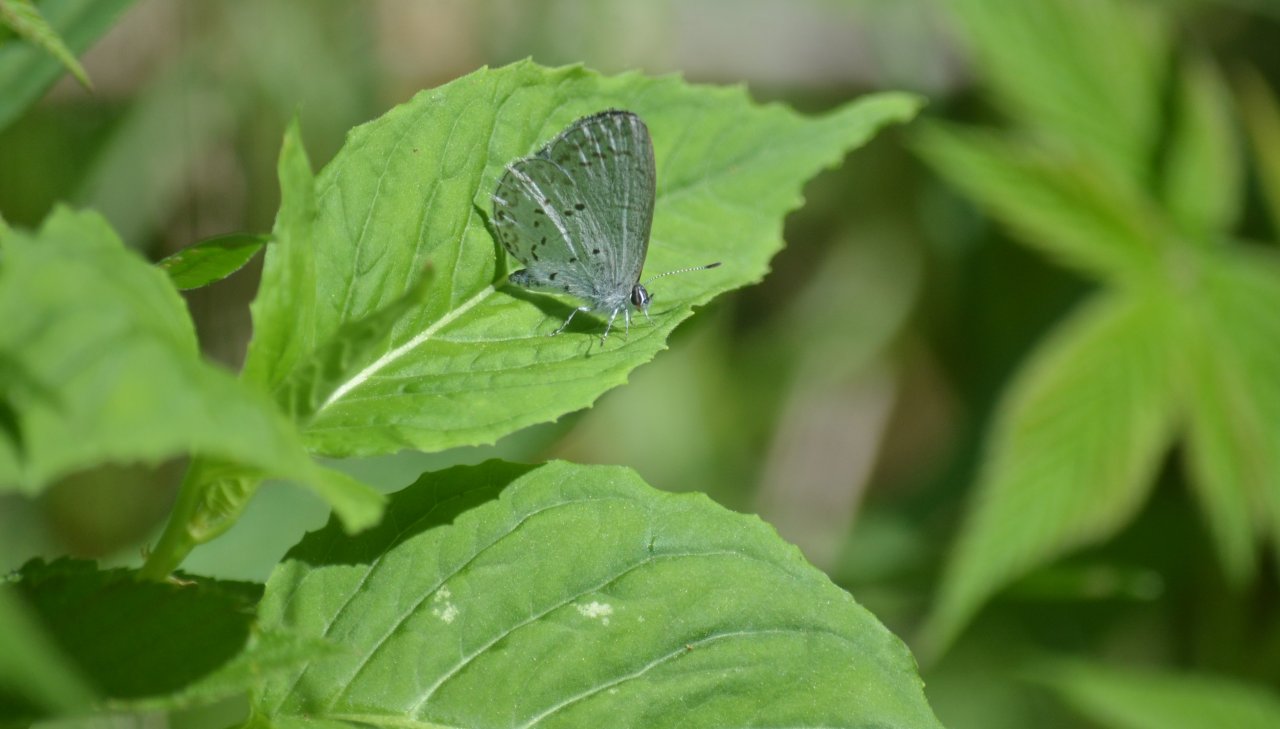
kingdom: Animalia
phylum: Arthropoda
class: Insecta
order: Lepidoptera
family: Lycaenidae
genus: Celastrina
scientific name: Celastrina lucia
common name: Northern Spring Azure
